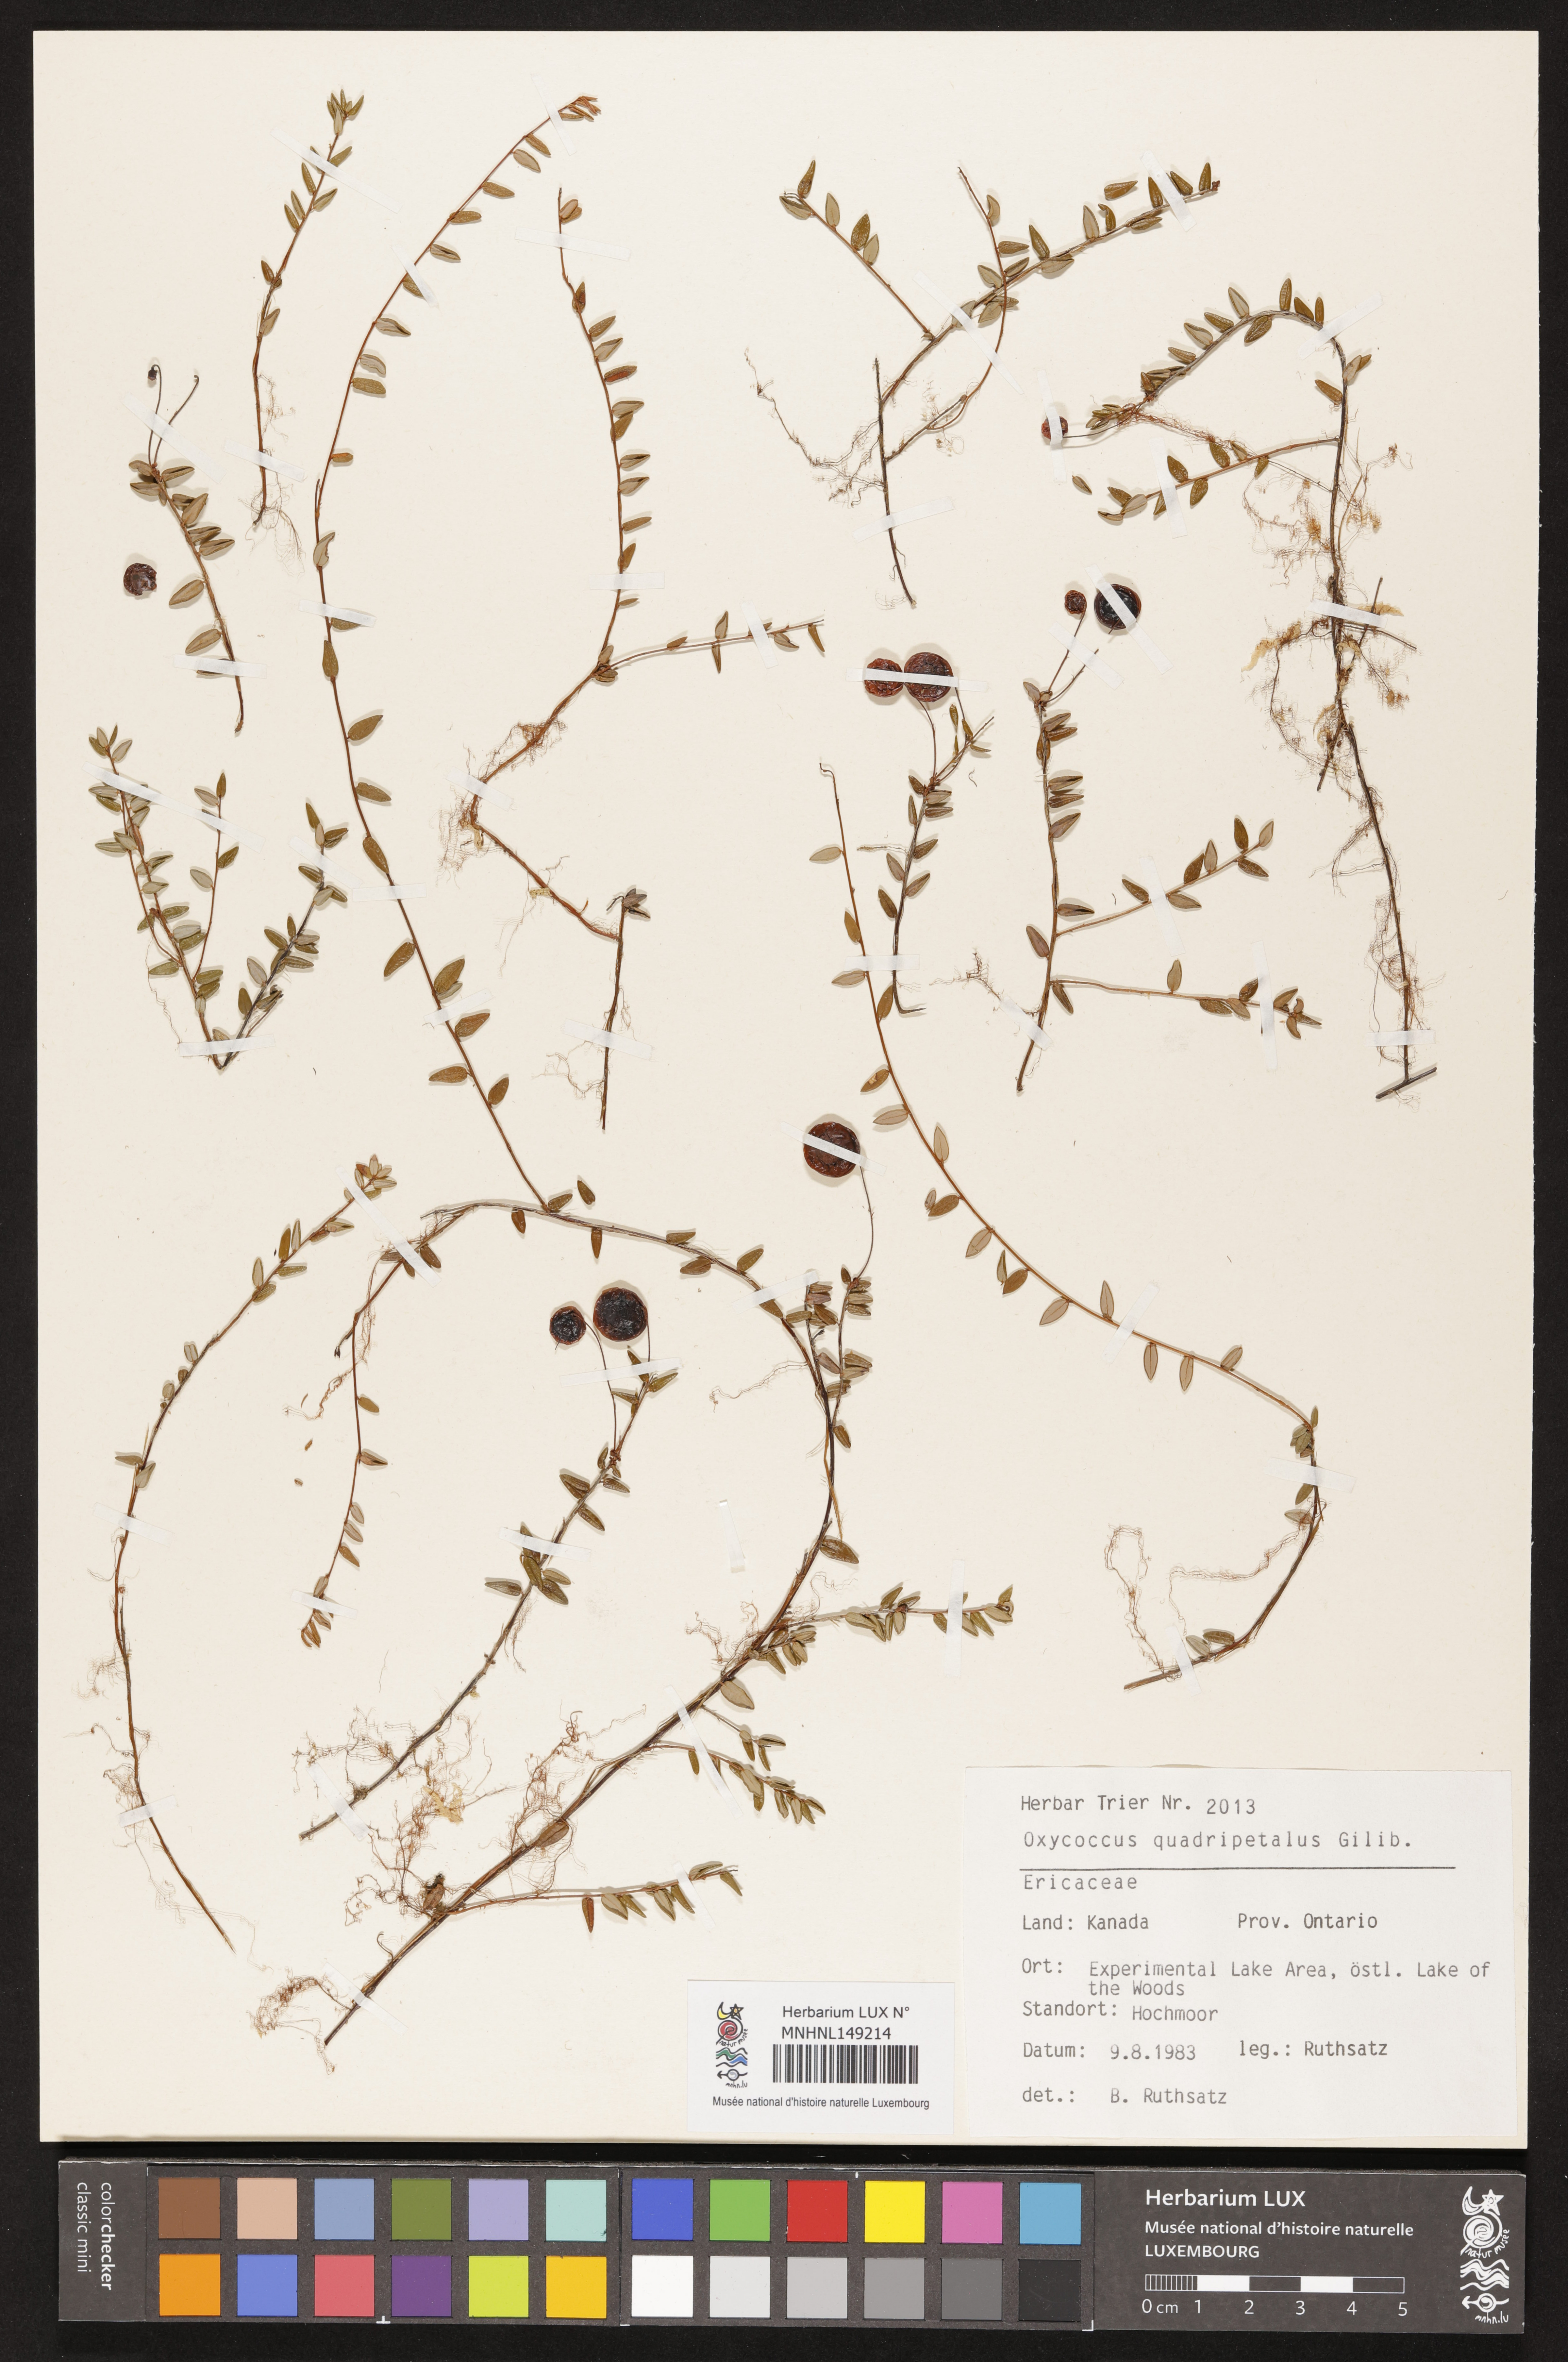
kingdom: Plantae
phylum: Tracheophyta
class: Magnoliopsida
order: Ericales
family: Ericaceae
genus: Vaccinium
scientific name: Vaccinium oxycoccos
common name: Cranberry
